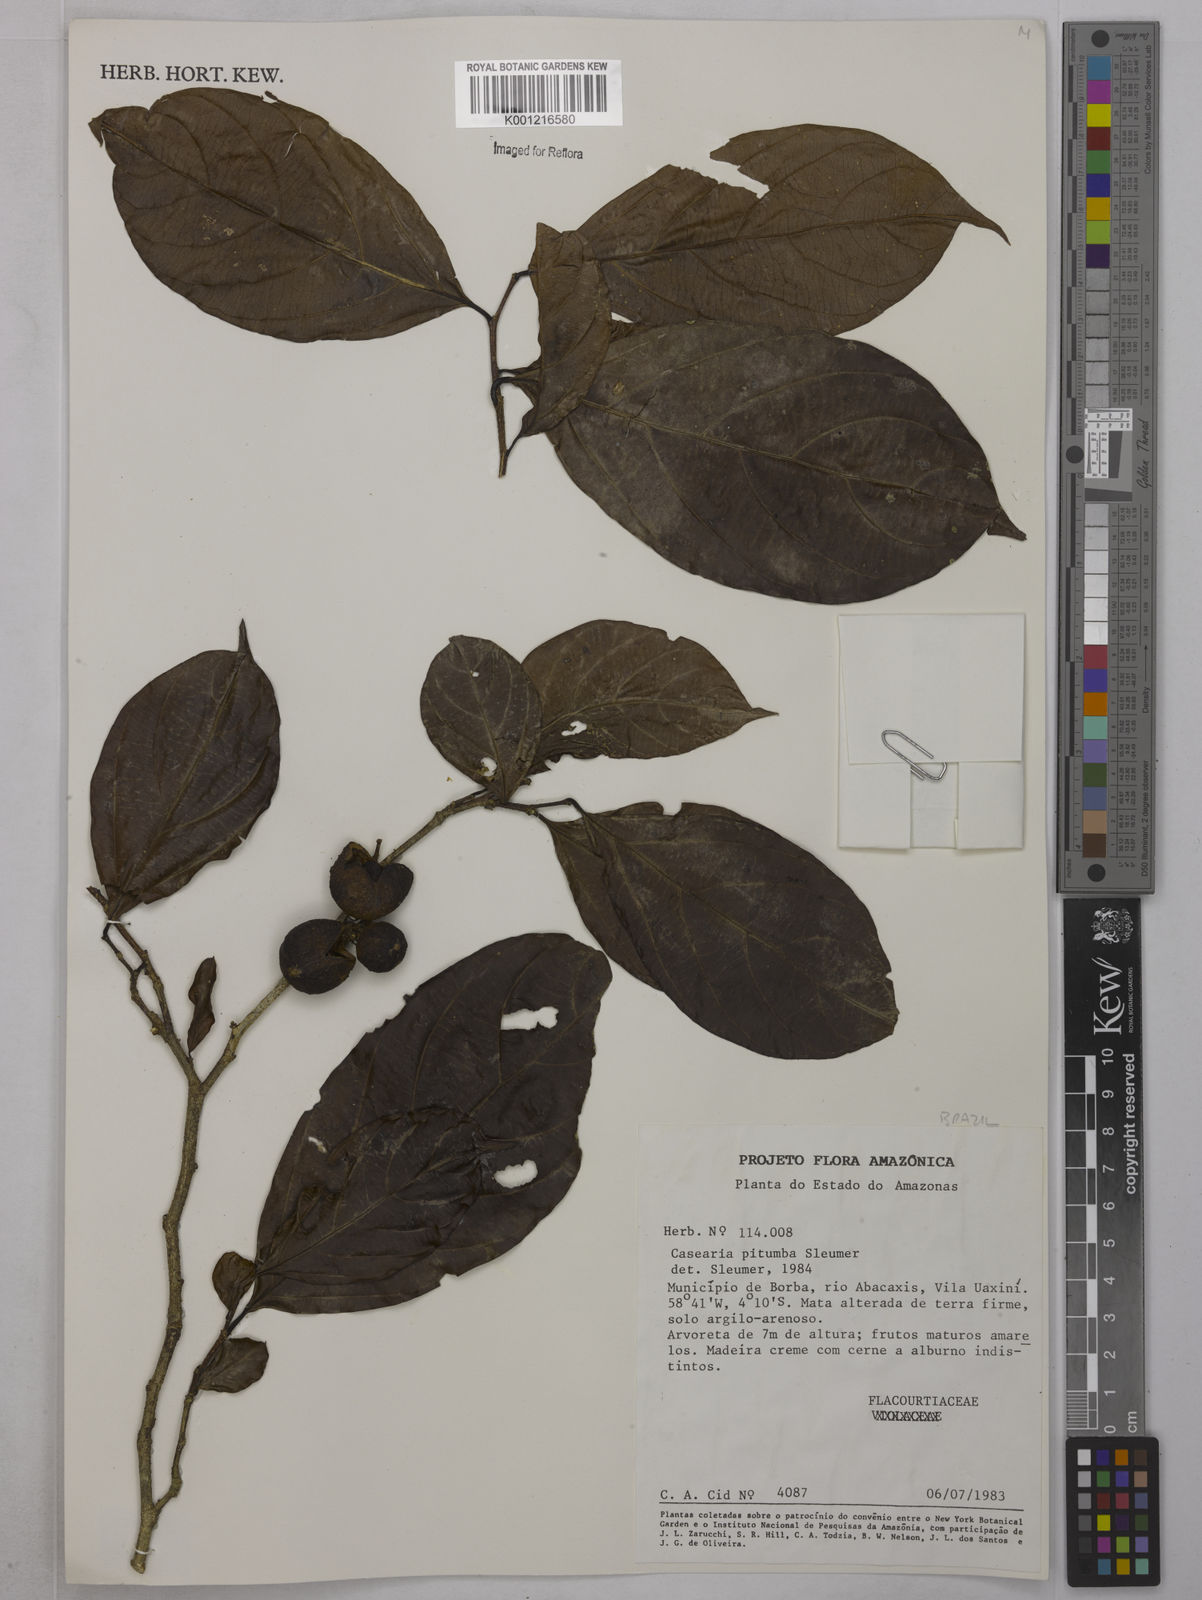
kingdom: Plantae
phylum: Tracheophyta
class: Magnoliopsida
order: Malpighiales
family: Salicaceae
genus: Casearia
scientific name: Casearia pitumba
